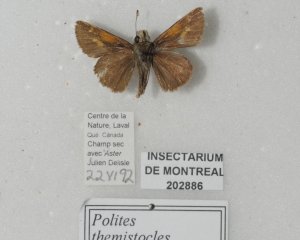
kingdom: Animalia
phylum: Arthropoda
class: Insecta
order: Lepidoptera
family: Hesperiidae
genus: Polites
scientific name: Polites themistocles
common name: Tawny-edged Skipper
